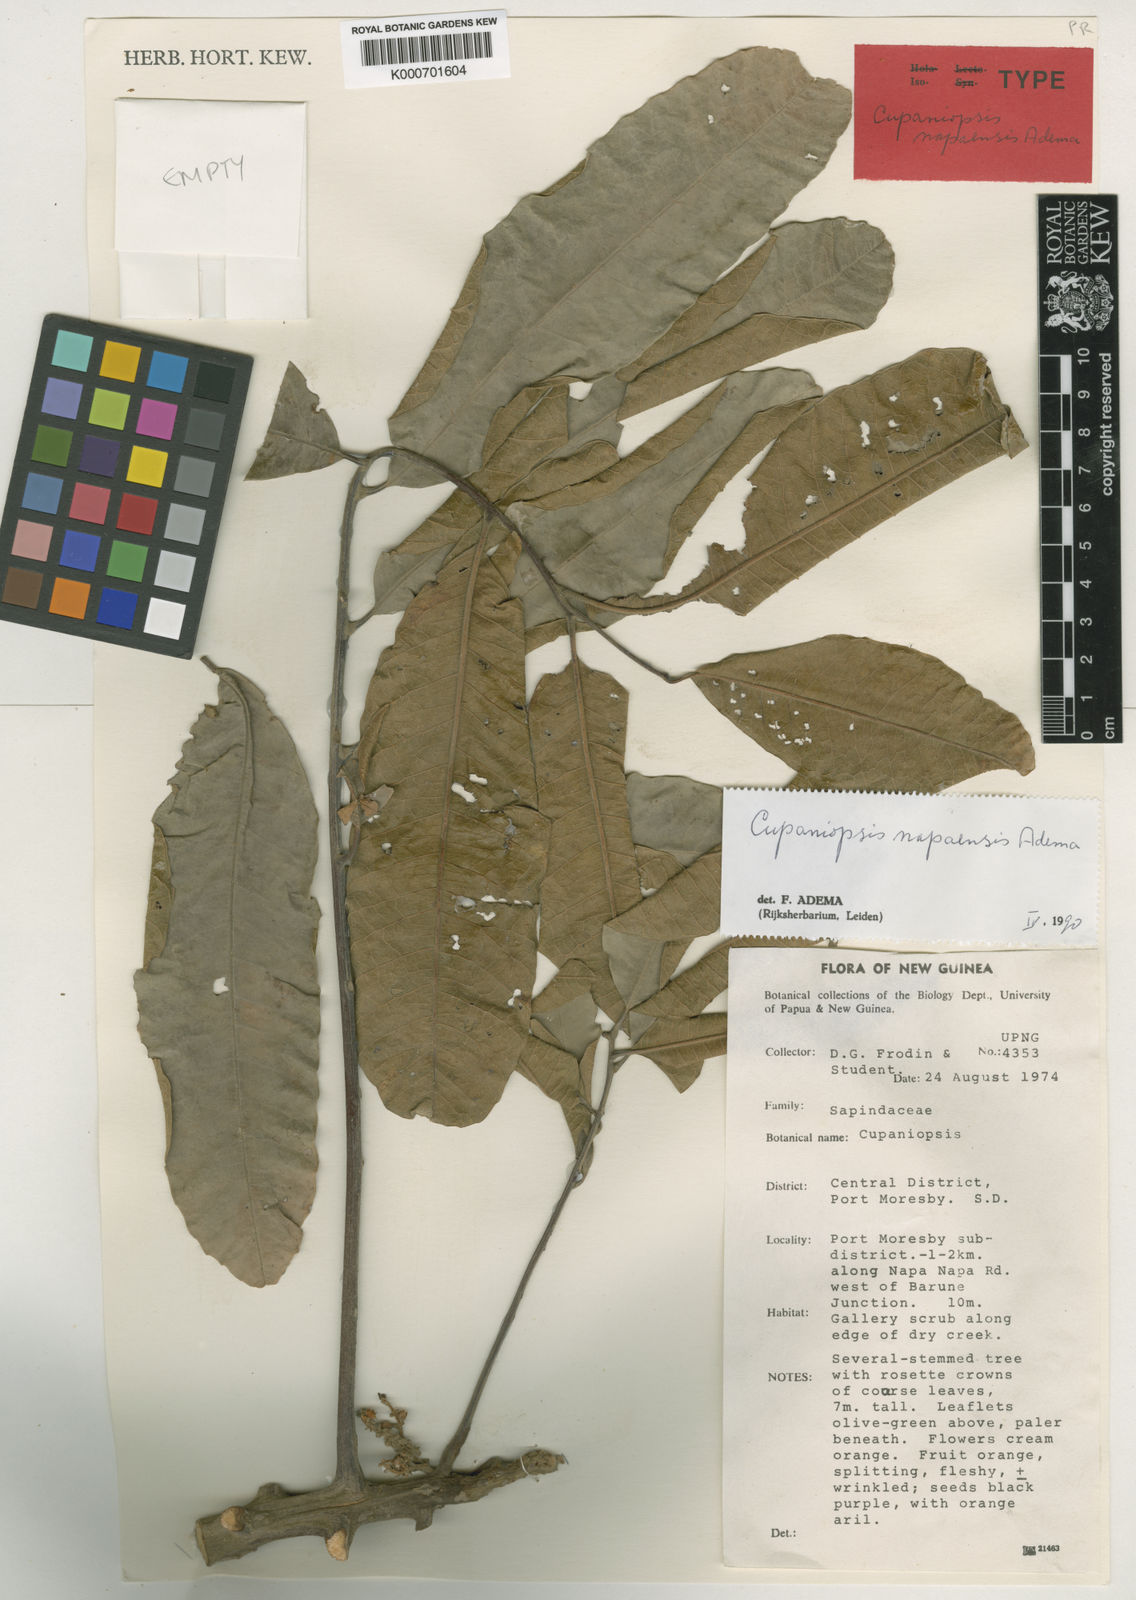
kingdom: Plantae
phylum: Tracheophyta
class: Magnoliopsida
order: Sapindales
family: Sapindaceae
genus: Cupaniopsis
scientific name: Cupaniopsis napaensis
